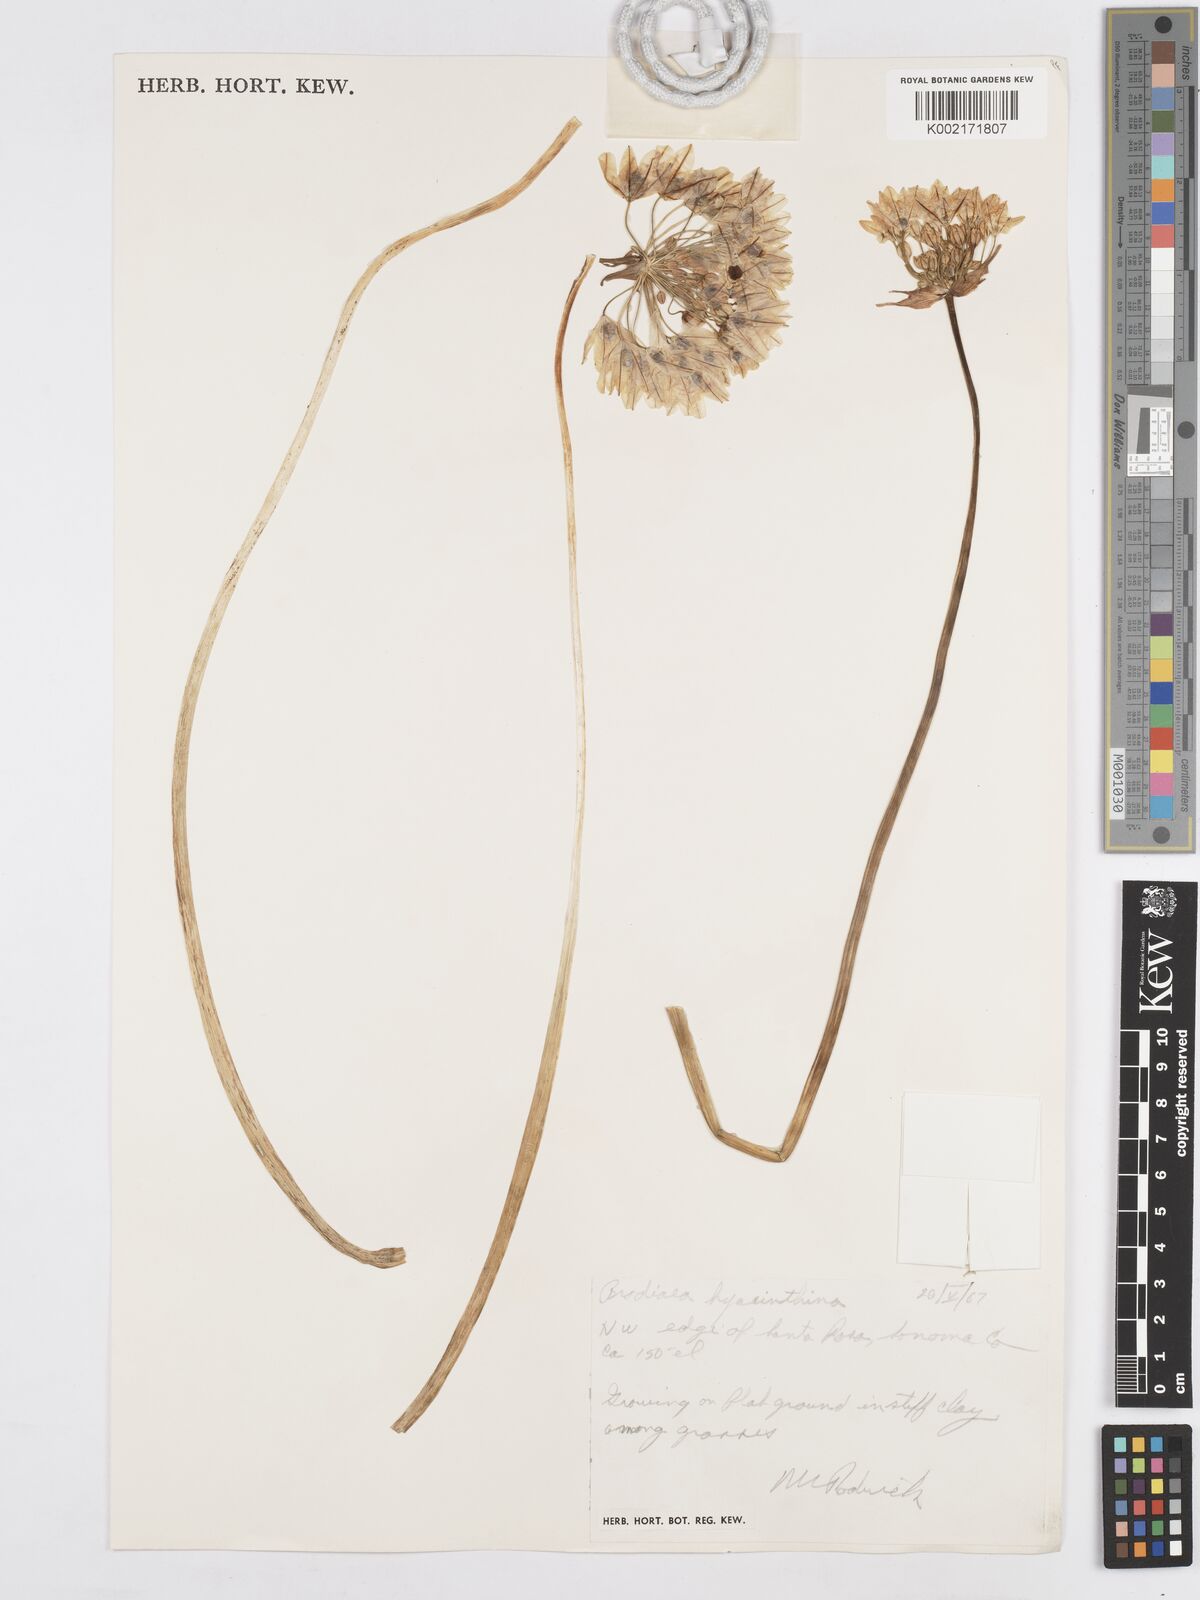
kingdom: Plantae
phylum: Tracheophyta
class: Liliopsida
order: Asparagales
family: Asparagaceae
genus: Triteleia
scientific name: Triteleia hyacinthina
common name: White brodiaea
